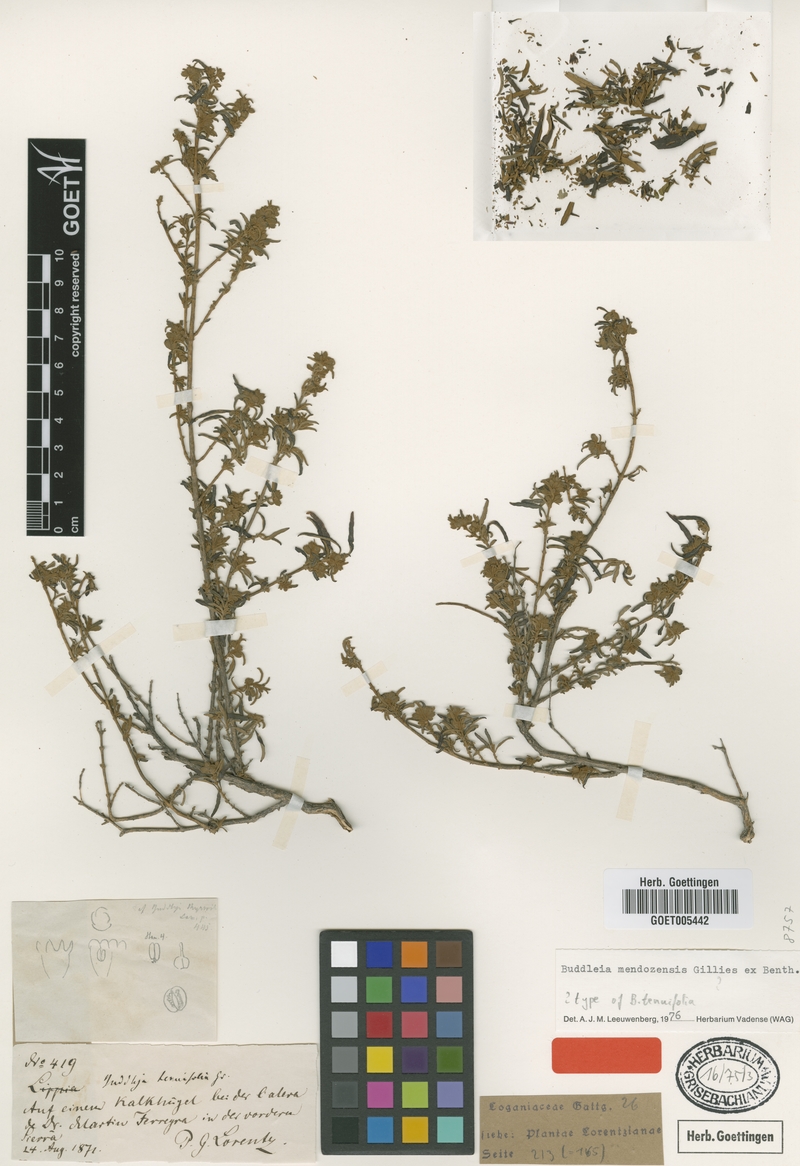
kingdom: Plantae
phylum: Tracheophyta
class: Magnoliopsida
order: Lamiales
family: Scrophulariaceae
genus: Buddleja
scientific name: Buddleja mendozensis
